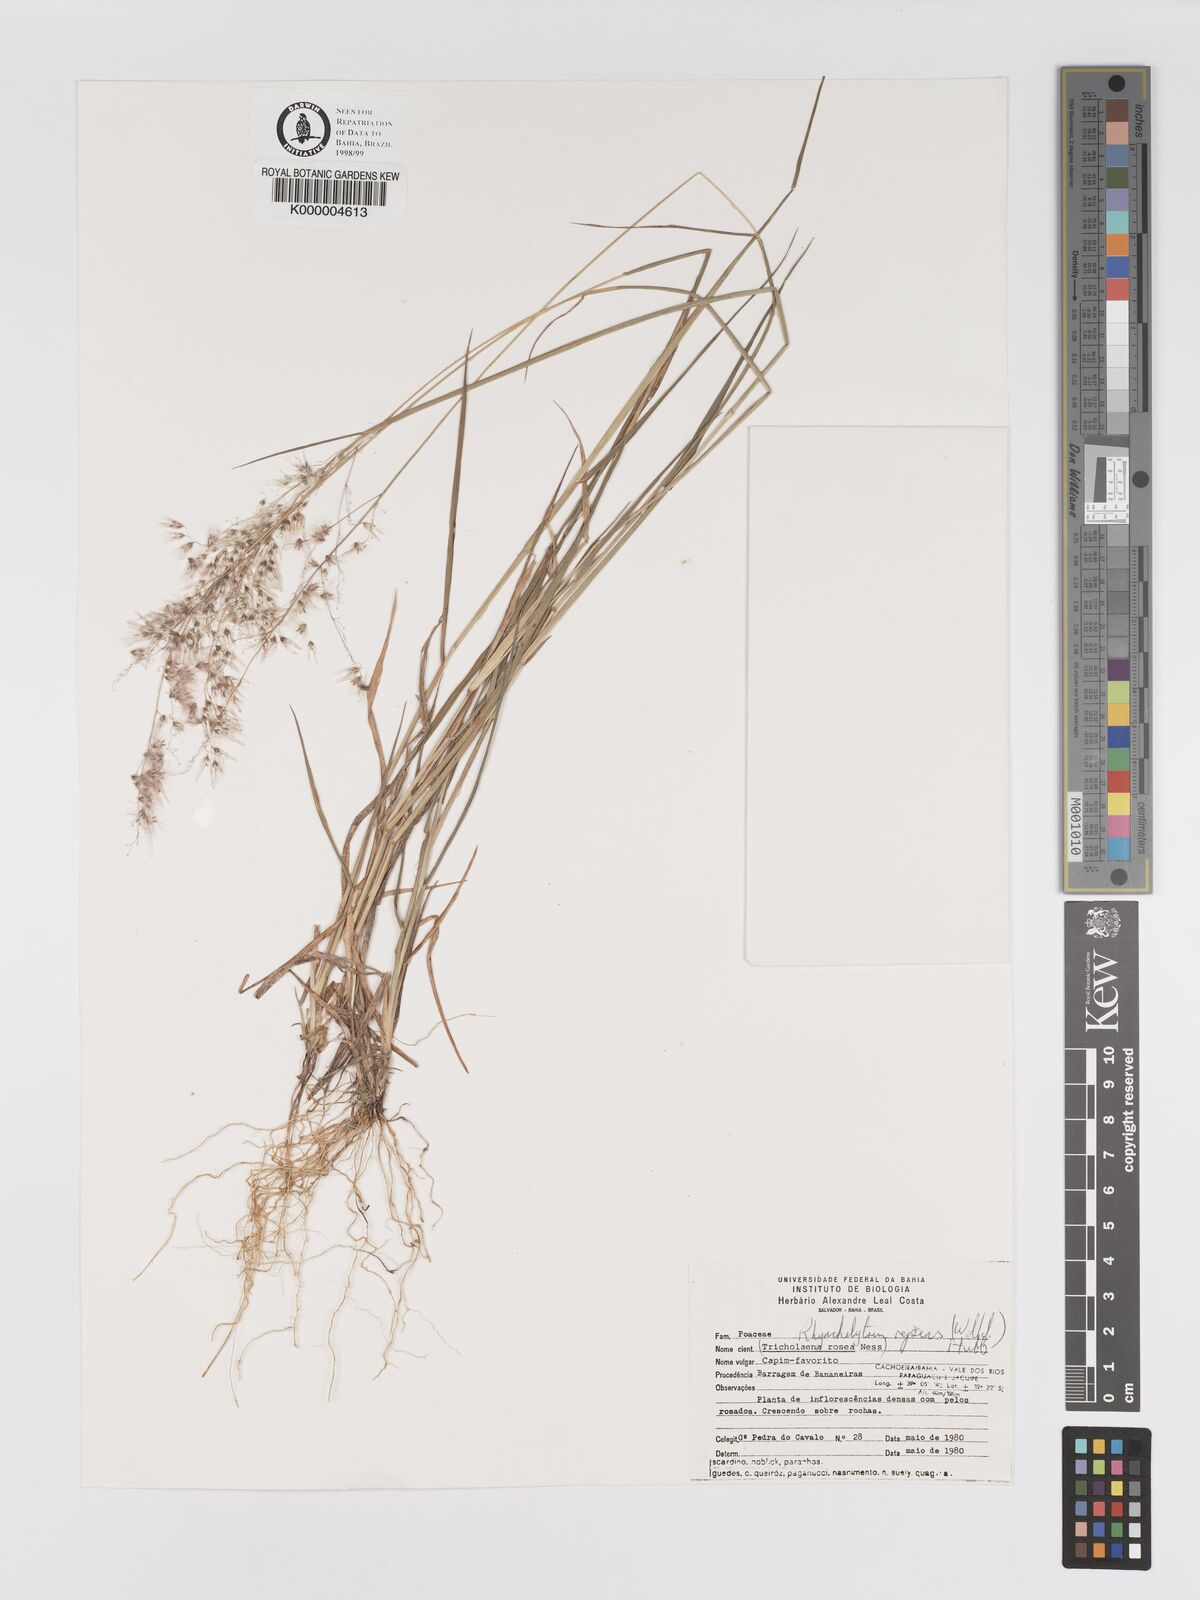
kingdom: Plantae
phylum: Tracheophyta
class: Liliopsida
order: Poales
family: Poaceae
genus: Melinis
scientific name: Melinis repens
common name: Rose natal grass
